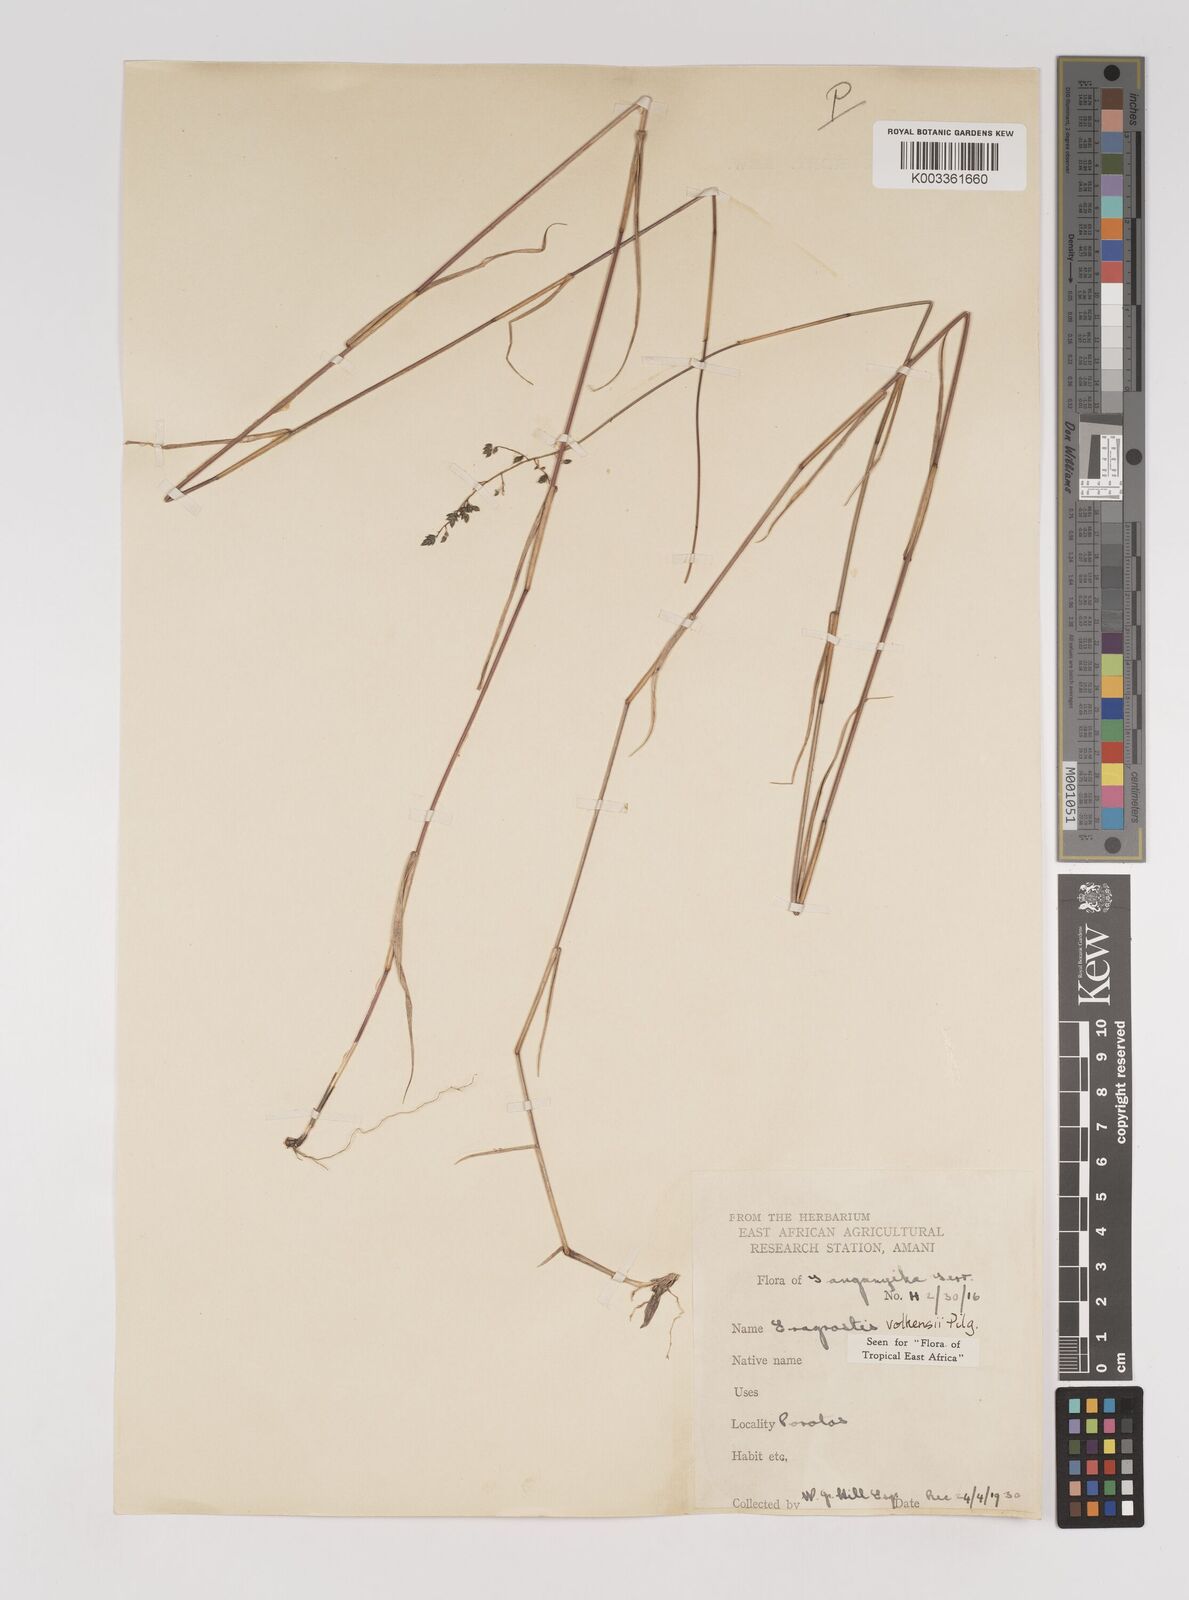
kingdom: Plantae
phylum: Tracheophyta
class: Liliopsida
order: Poales
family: Poaceae
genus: Eragrostis
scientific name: Eragrostis volkensii
